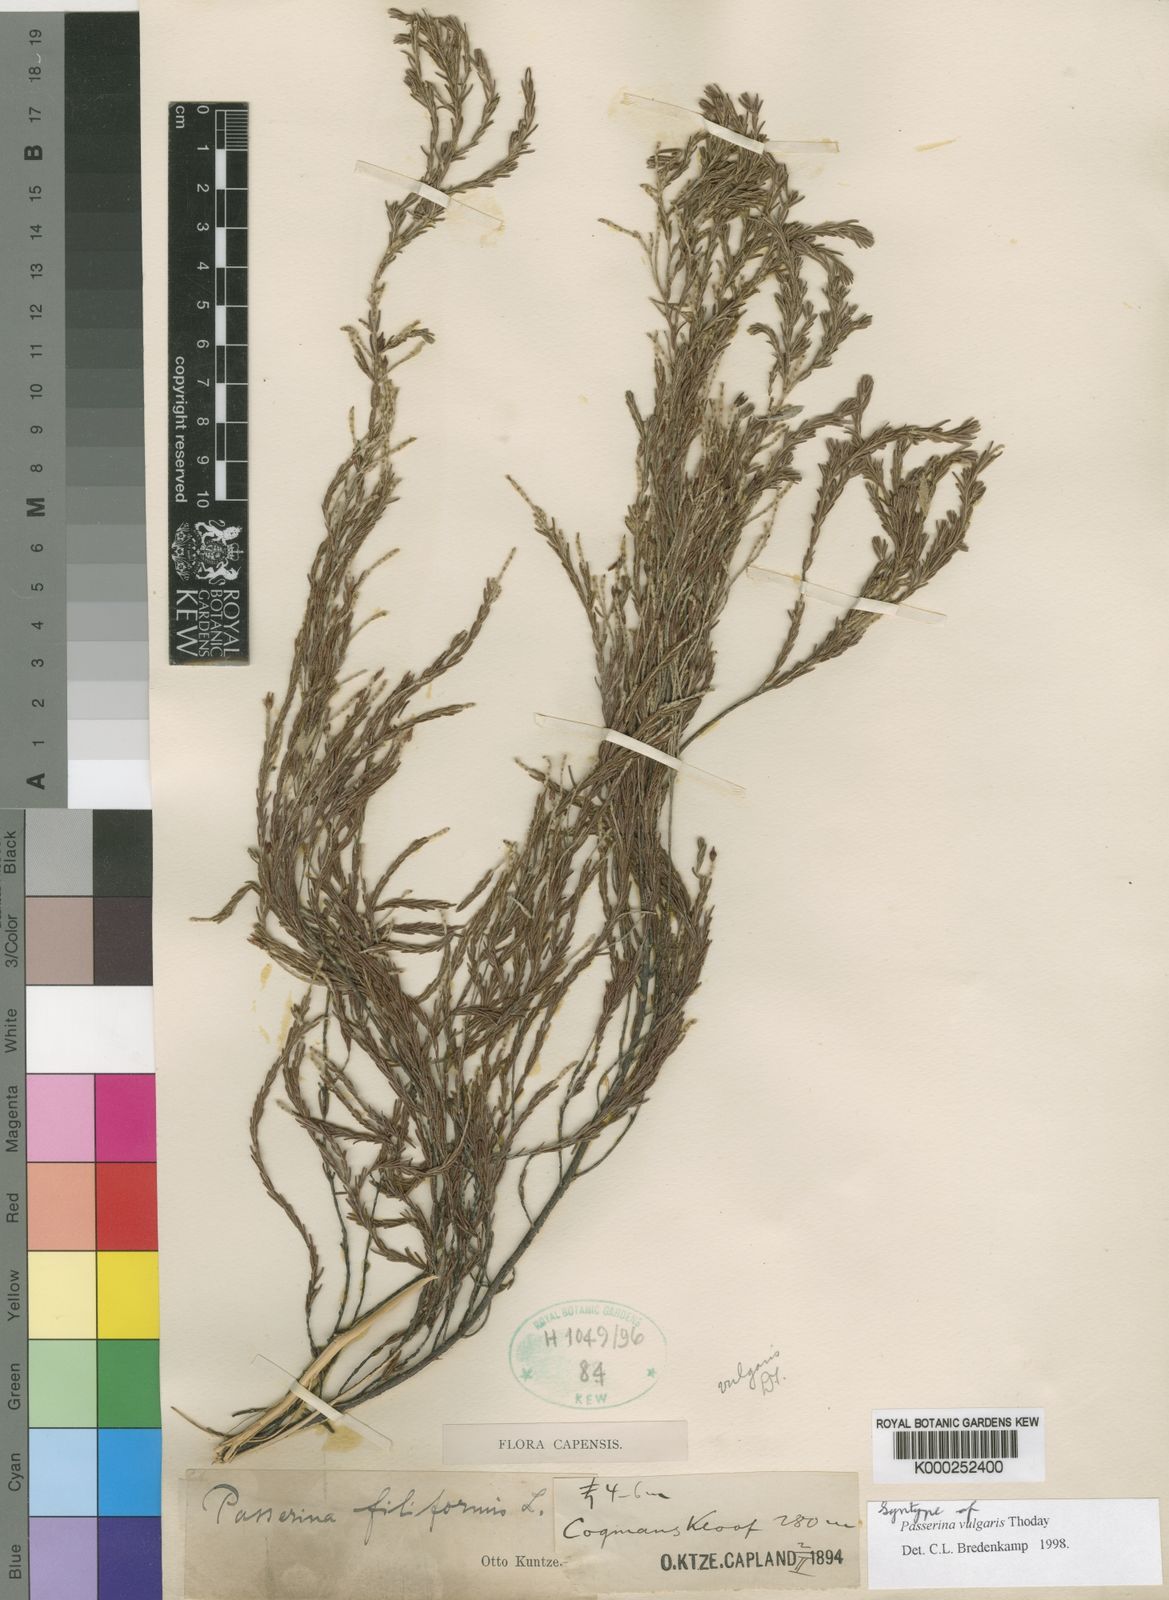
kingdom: Plantae
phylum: Tracheophyta
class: Magnoliopsida
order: Malvales
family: Thymelaeaceae
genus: Passerina
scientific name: Passerina corymbosa
